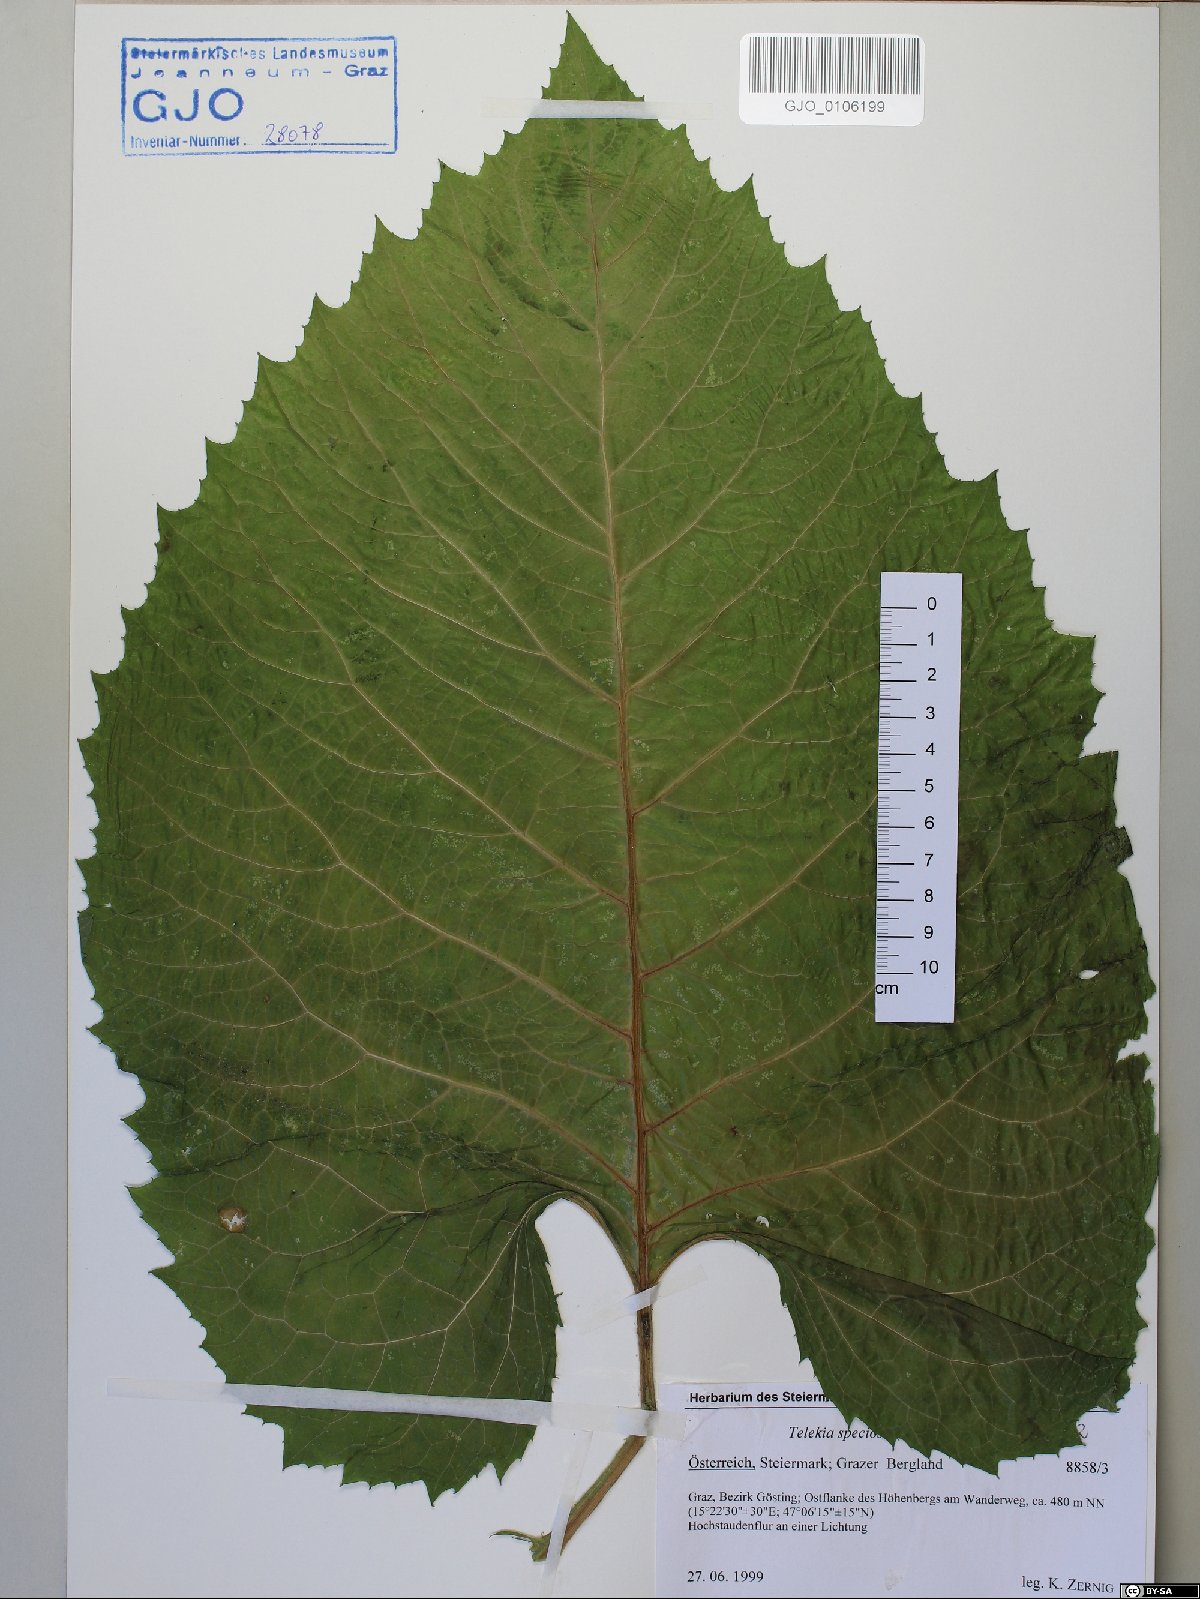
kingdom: Plantae
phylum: Tracheophyta
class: Magnoliopsida
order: Asterales
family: Asteraceae
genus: Telekia
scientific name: Telekia speciosa
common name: Yellow oxeye
